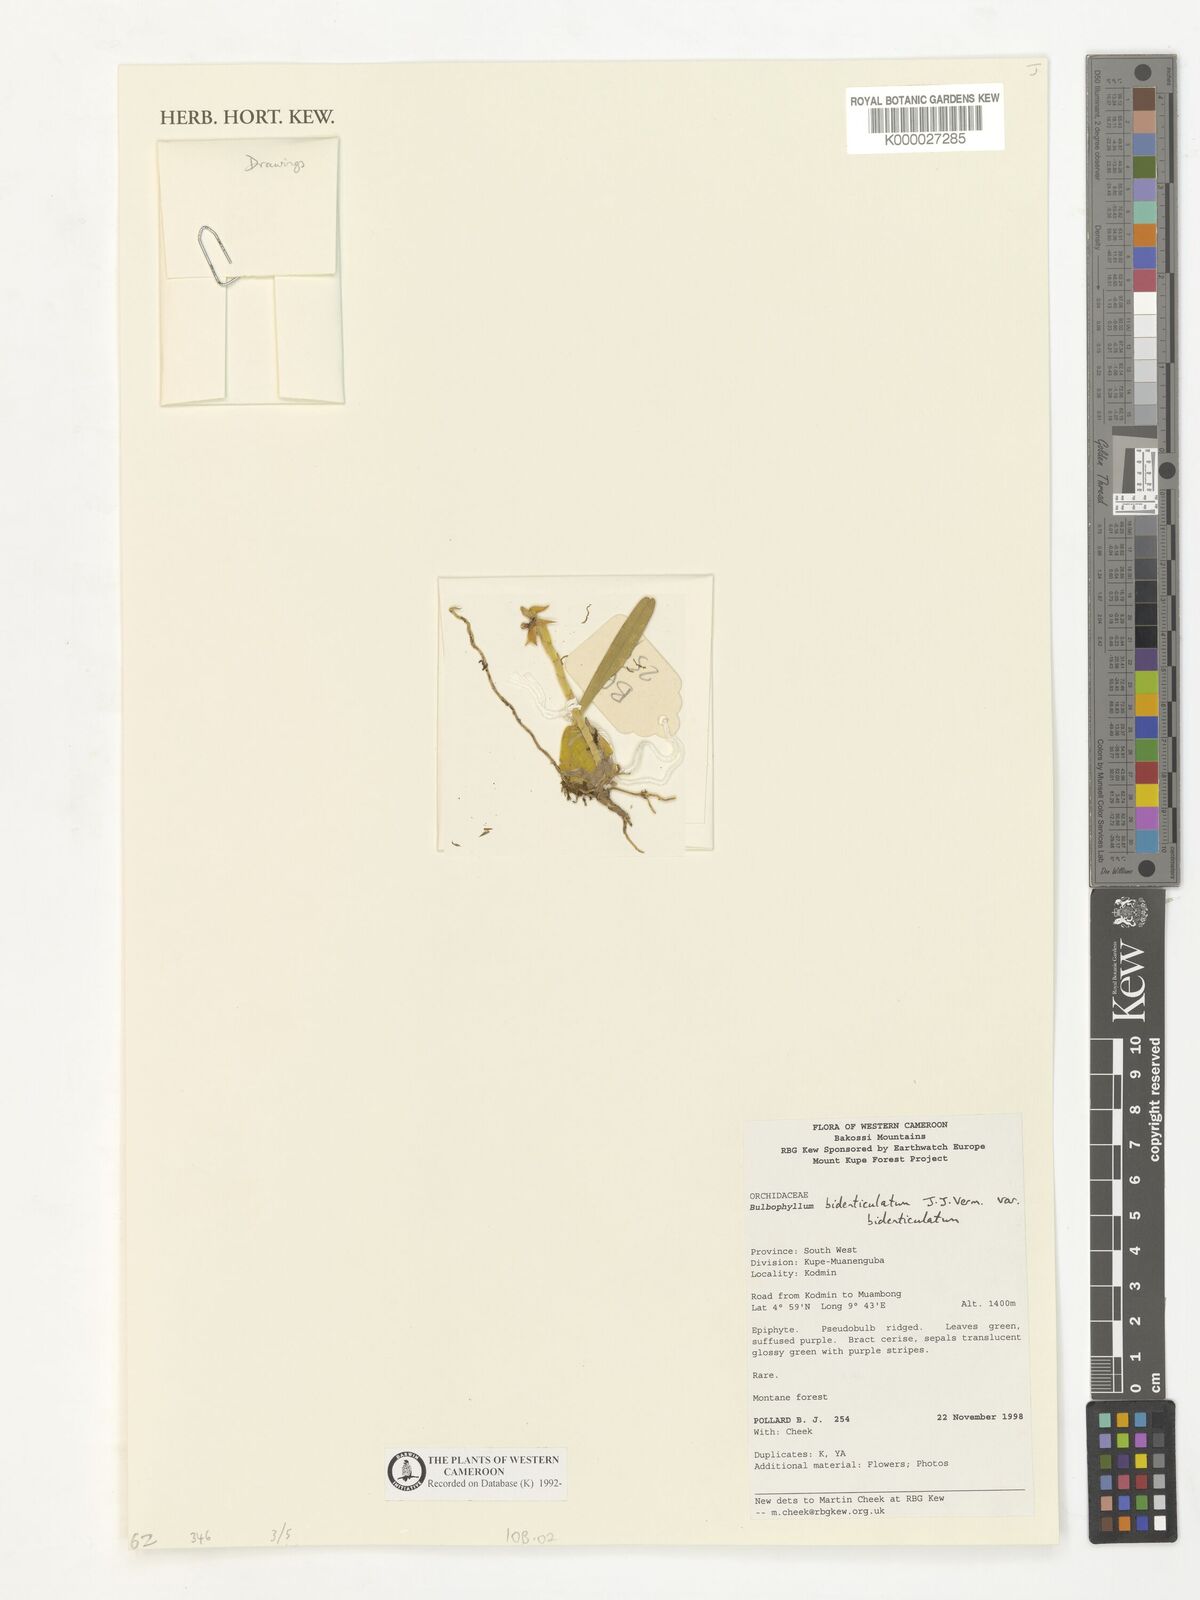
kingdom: Plantae
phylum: Tracheophyta
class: Liliopsida
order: Asparagales
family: Orchidaceae
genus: Bulbophyllum
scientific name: Bulbophyllum bidenticulatum
